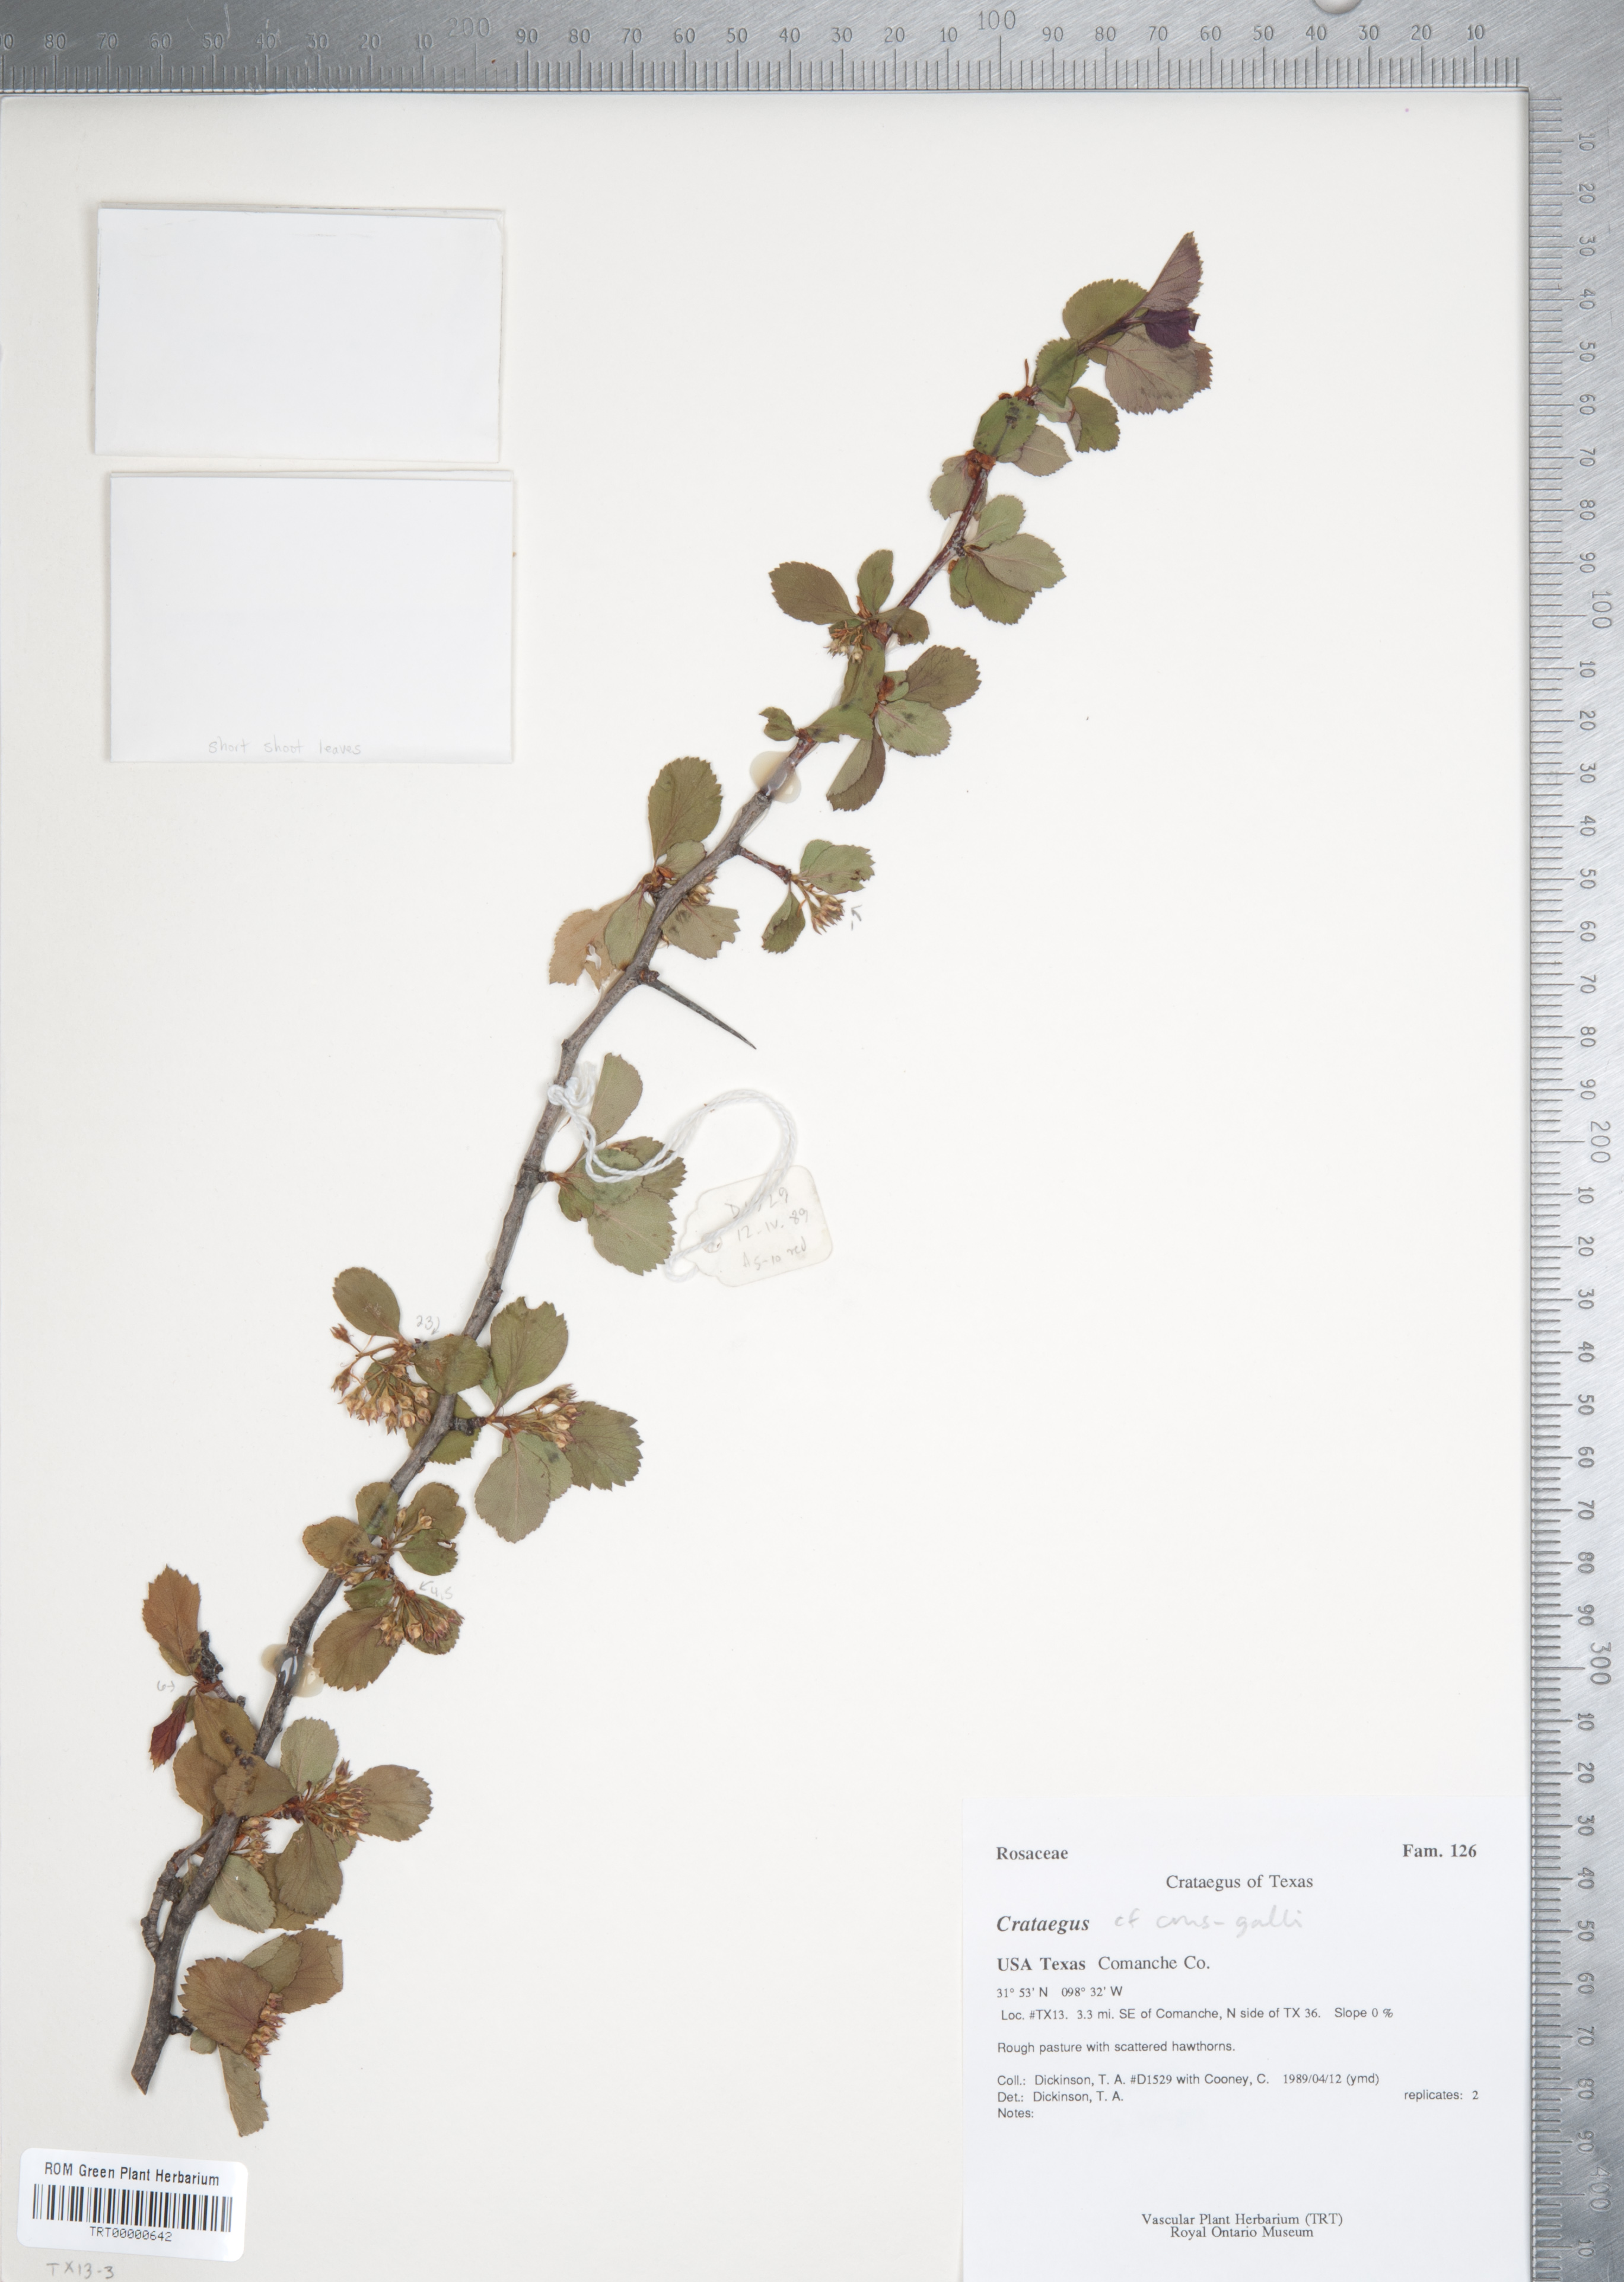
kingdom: Plantae
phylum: Tracheophyta
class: Magnoliopsida
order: Rosales
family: Rosaceae
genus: Crataegus
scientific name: Crataegus crus-galli
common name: Cockspurthorn
